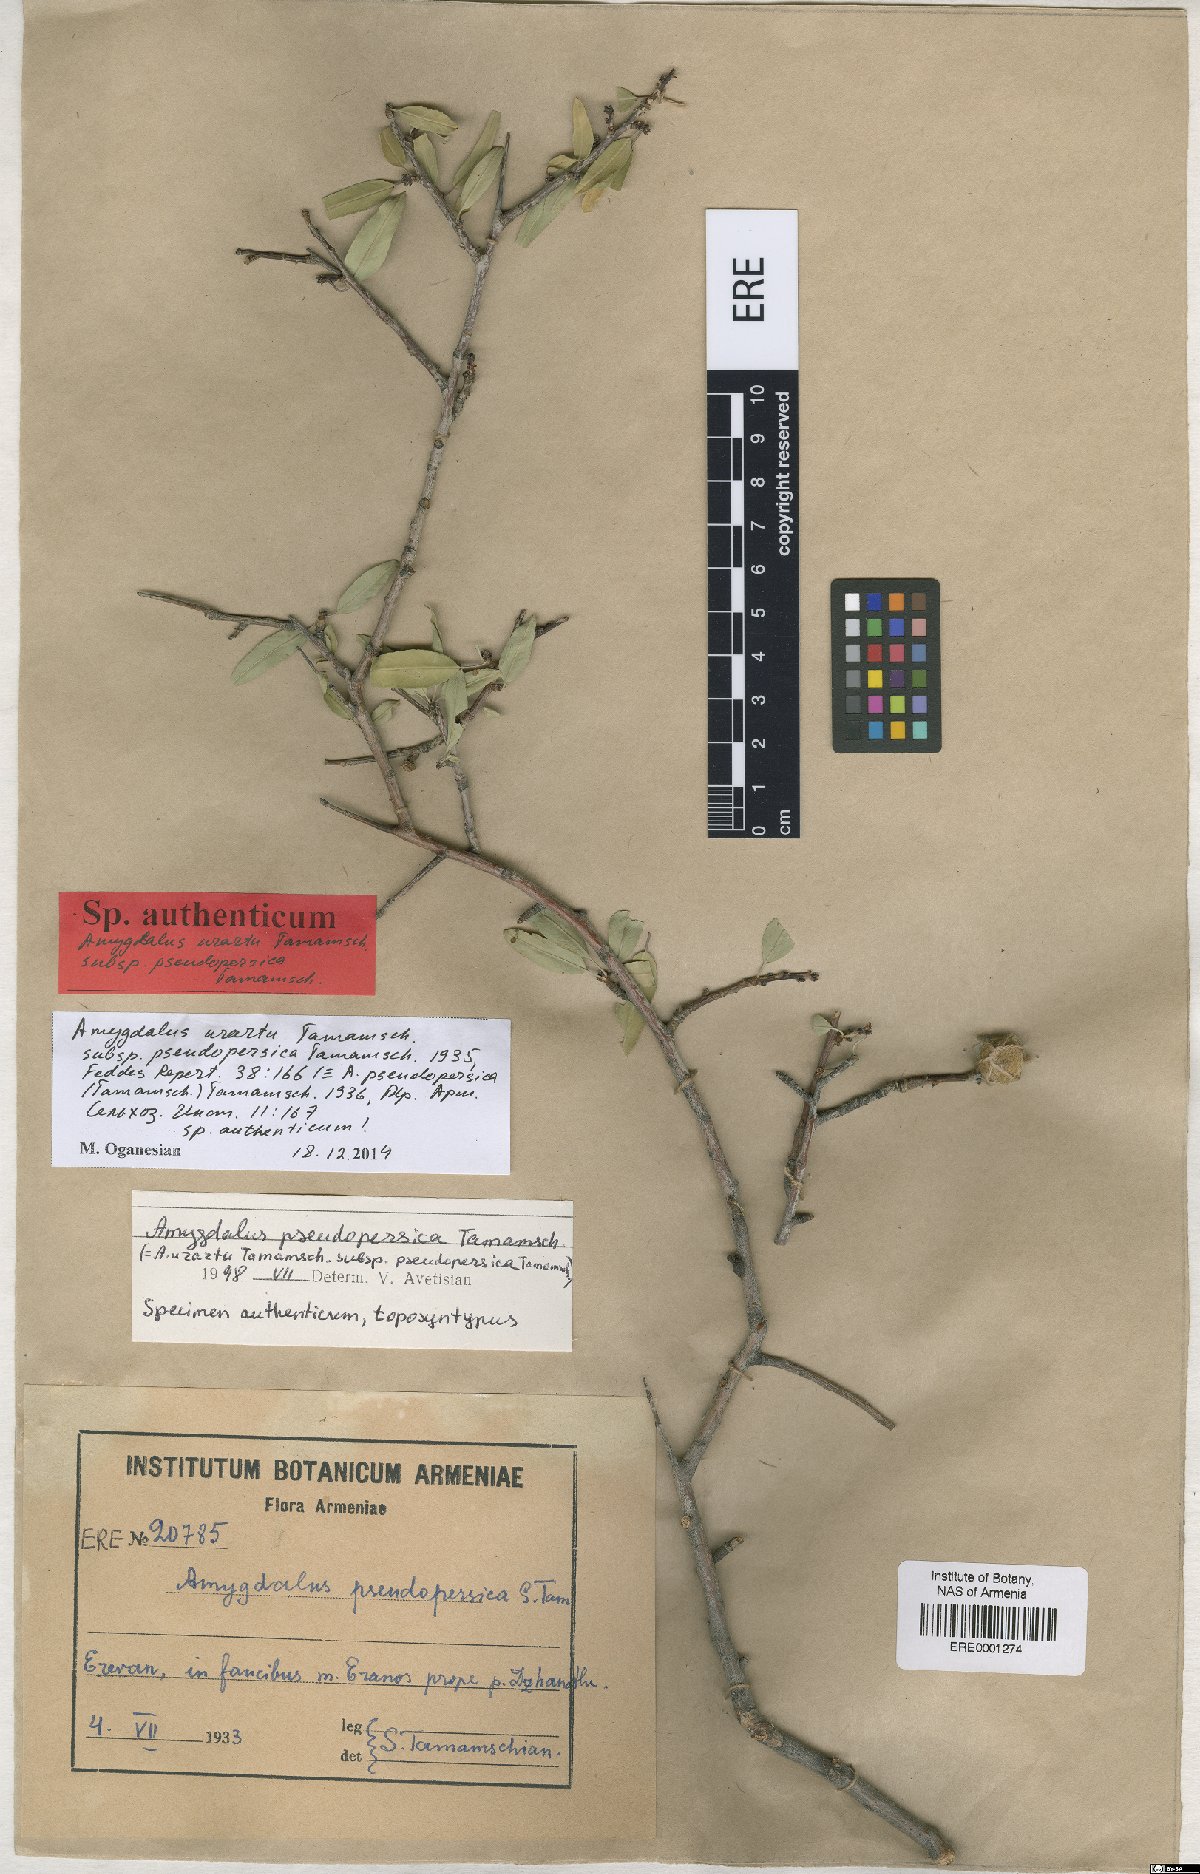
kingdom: Plantae
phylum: Tracheophyta
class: Magnoliopsida
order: Rosales
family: Rosaceae
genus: Prunus
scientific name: Prunus urartu
